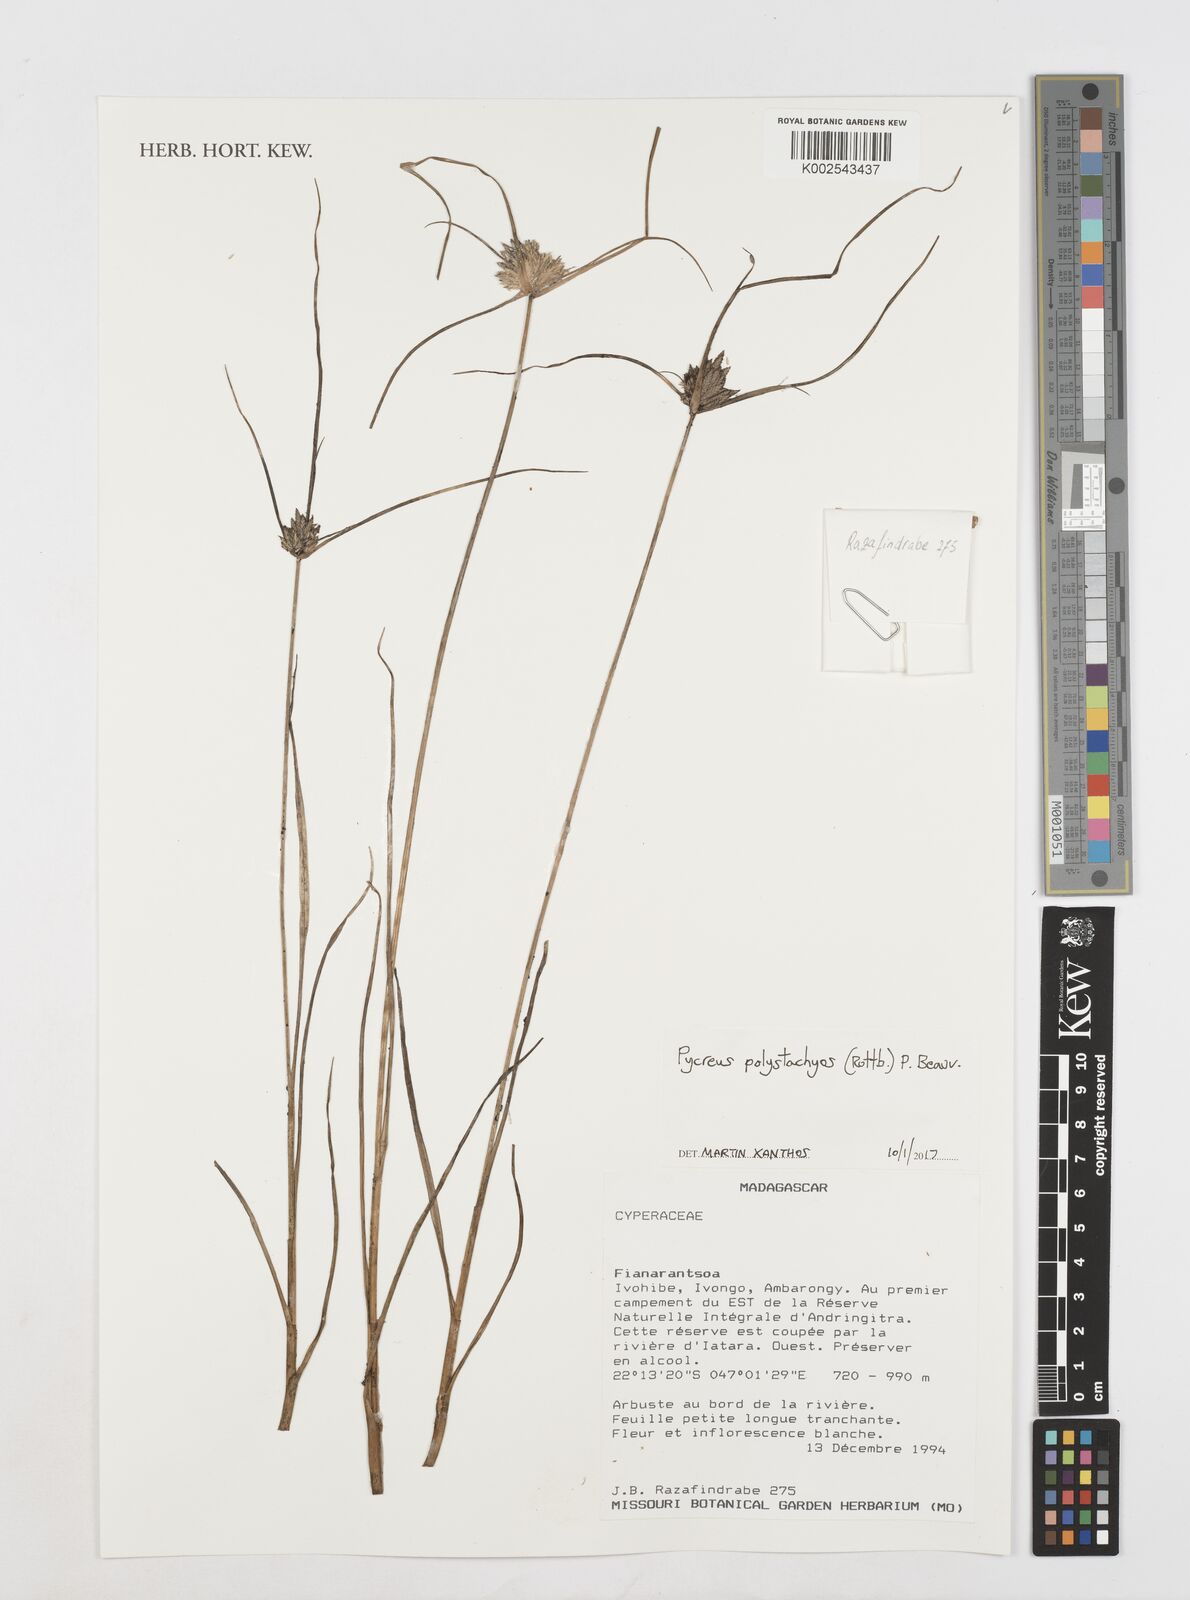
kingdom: Plantae
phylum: Tracheophyta
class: Liliopsida
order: Poales
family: Cyperaceae
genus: Cyperus
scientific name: Cyperus polystachyos
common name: Bunchy flat sedge
